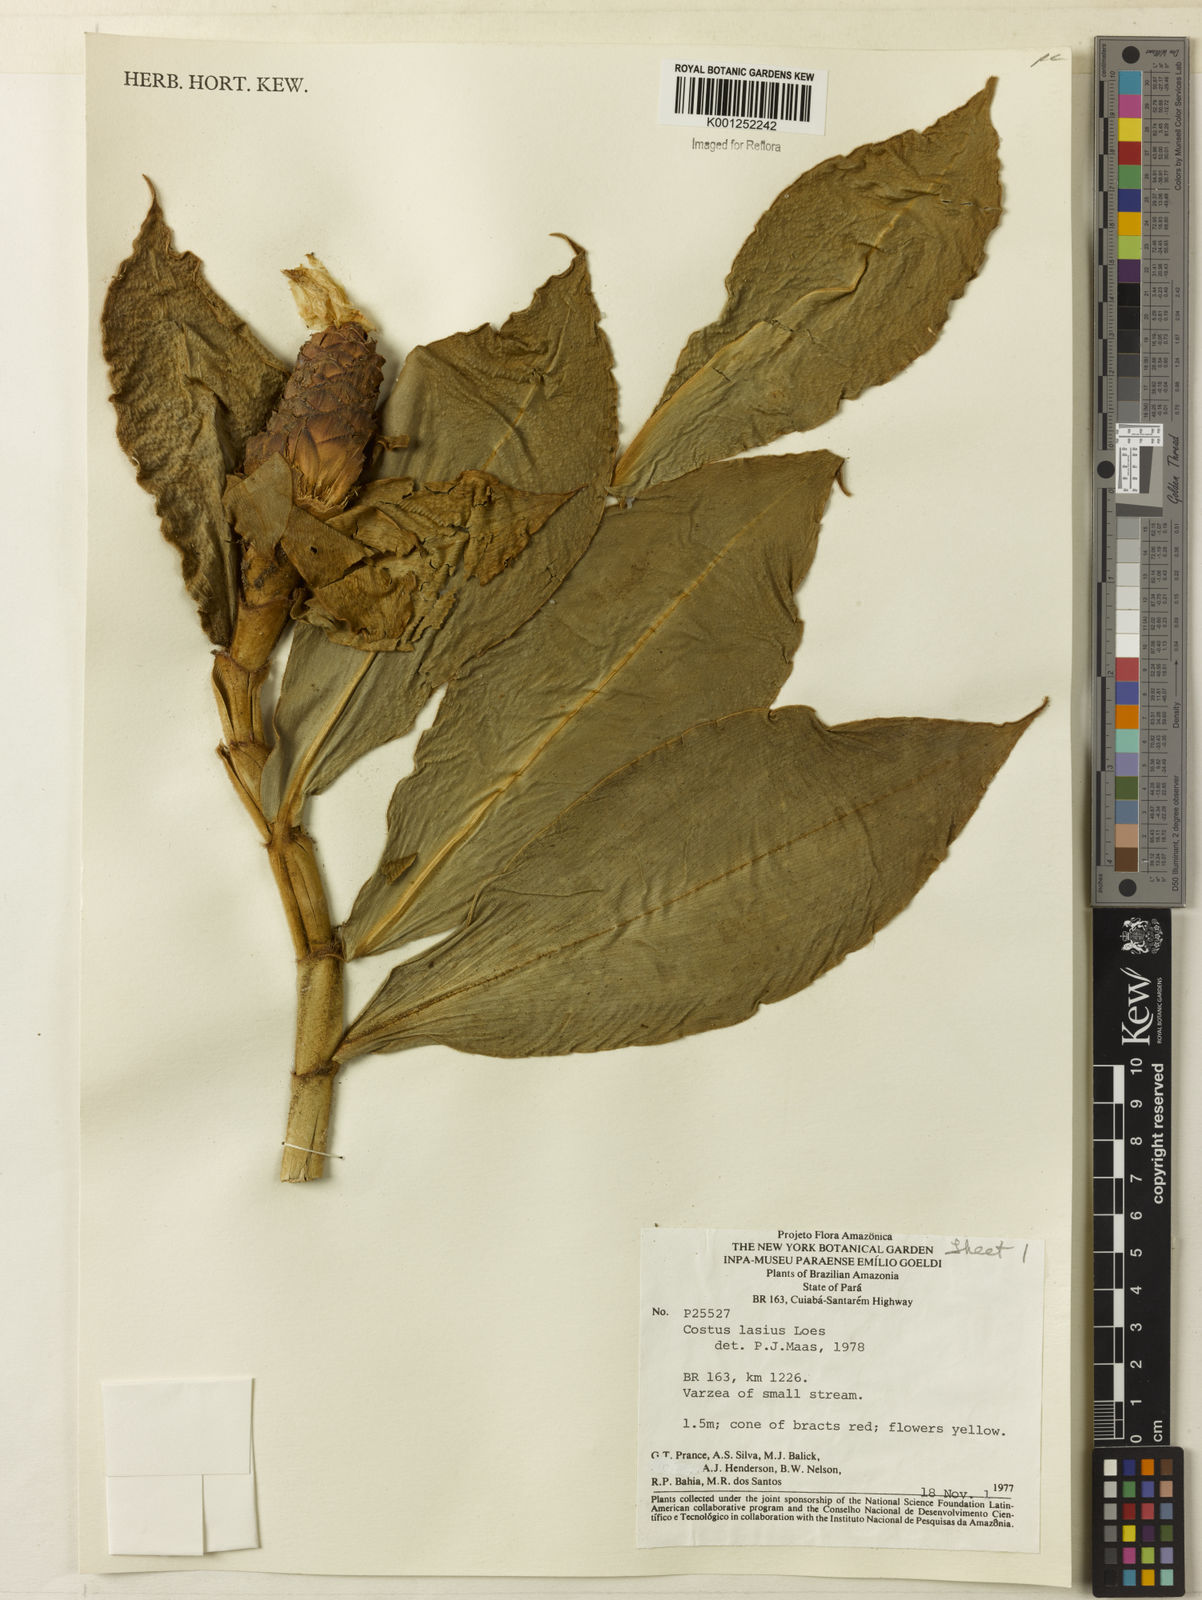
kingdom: Plantae
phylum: Tracheophyta
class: Liliopsida
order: Zingiberales
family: Costaceae
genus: Costus
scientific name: Costus lasius
